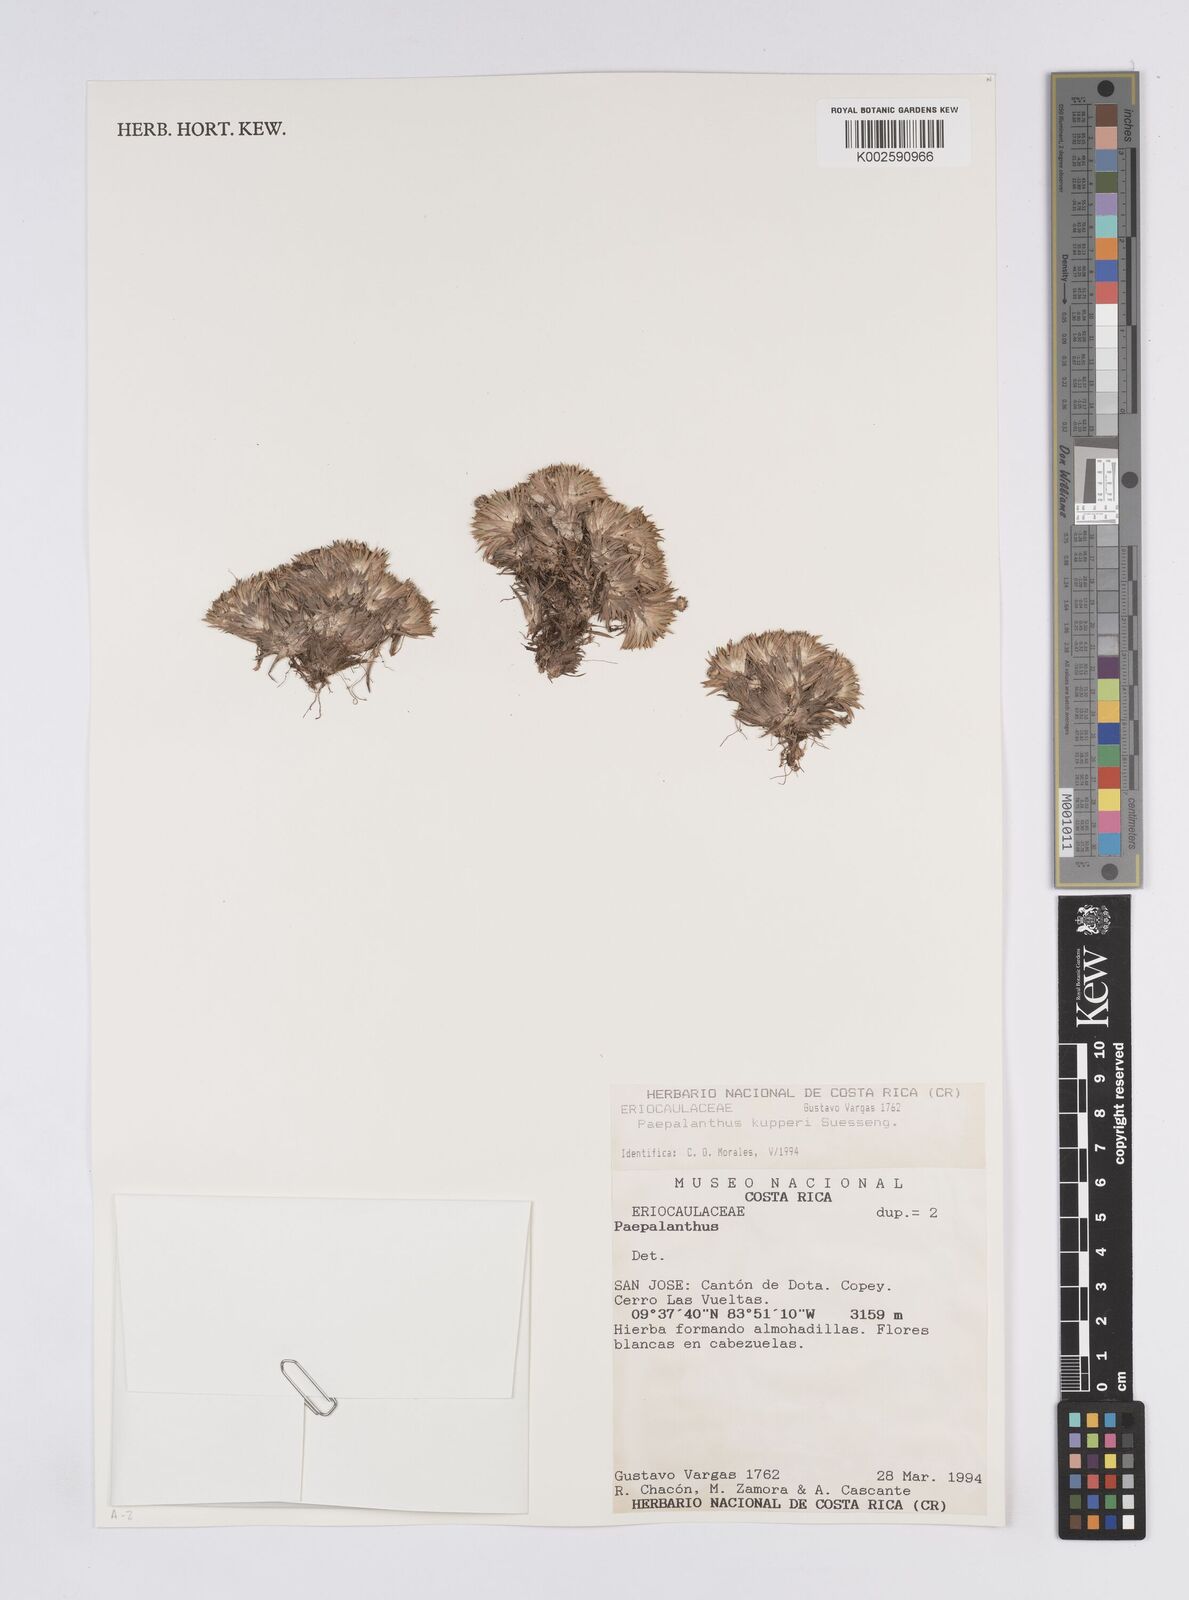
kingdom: Plantae
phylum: Tracheophyta
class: Liliopsida
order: Poales
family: Eriocaulaceae
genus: Paepalanthus
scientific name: Paepalanthus pilosus
